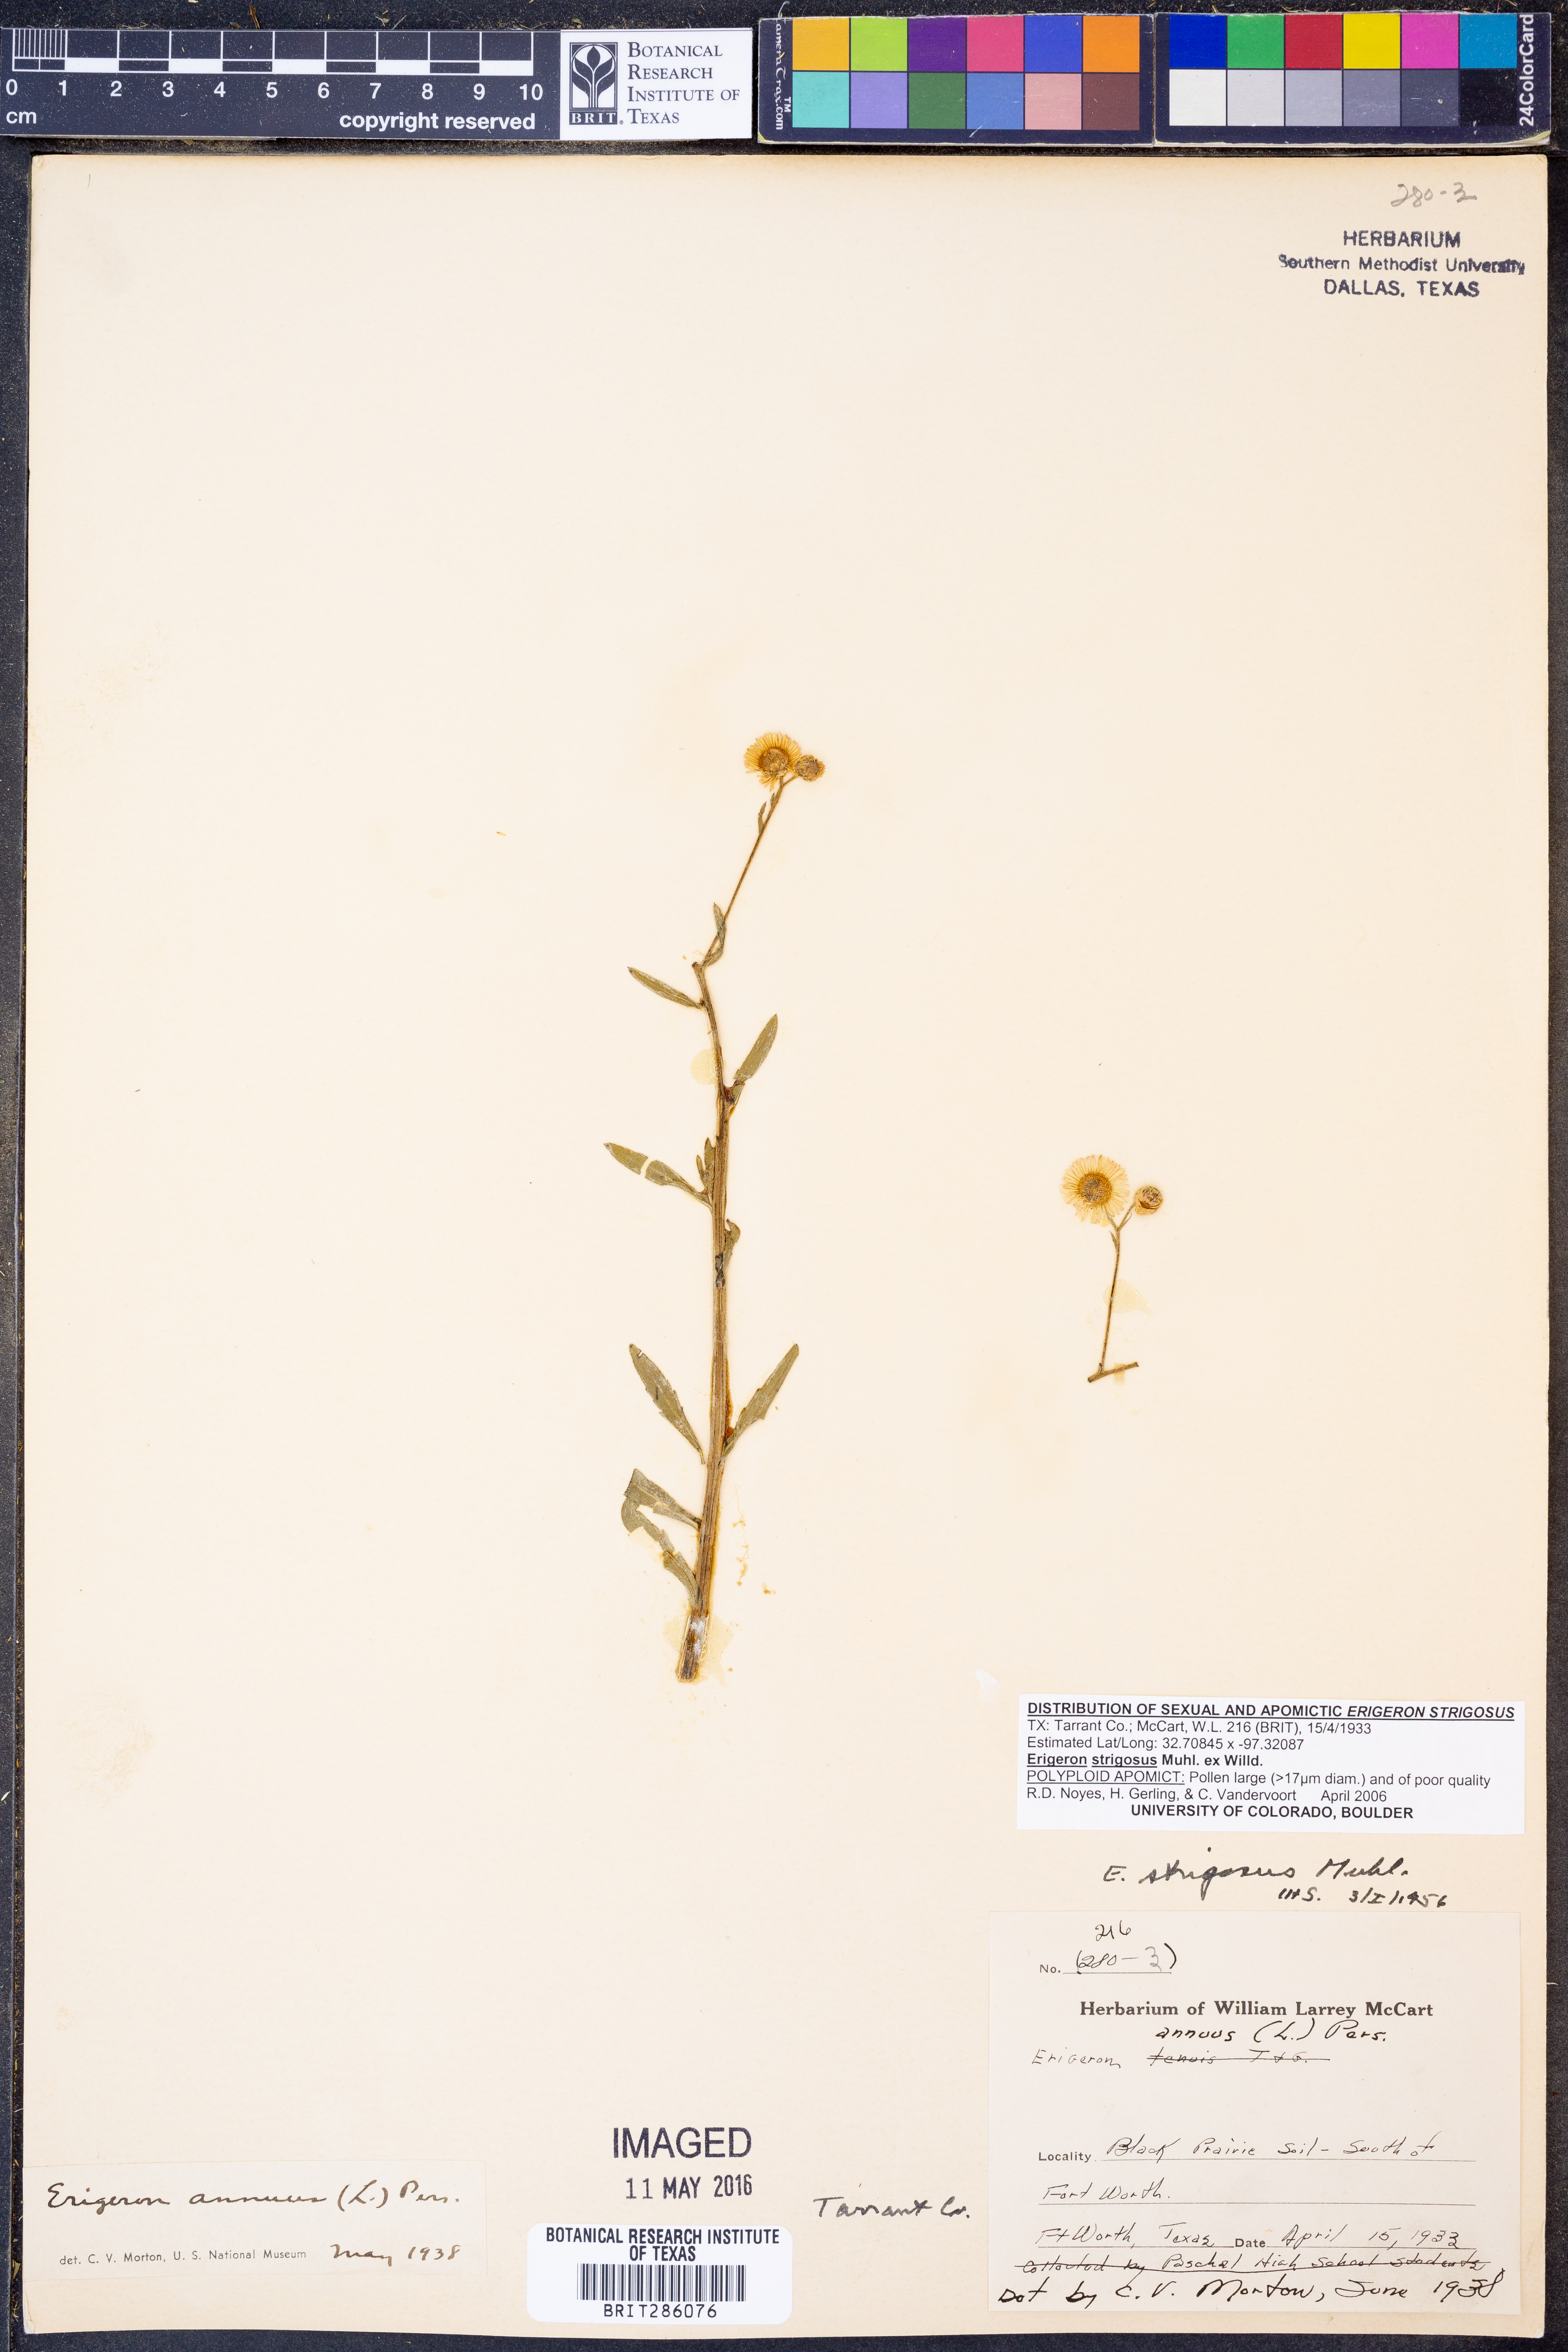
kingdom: Plantae
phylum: Tracheophyta
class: Magnoliopsida
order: Asterales
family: Asteraceae
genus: Erigeron
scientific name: Erigeron strigosus
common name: Common eastern fleabane
